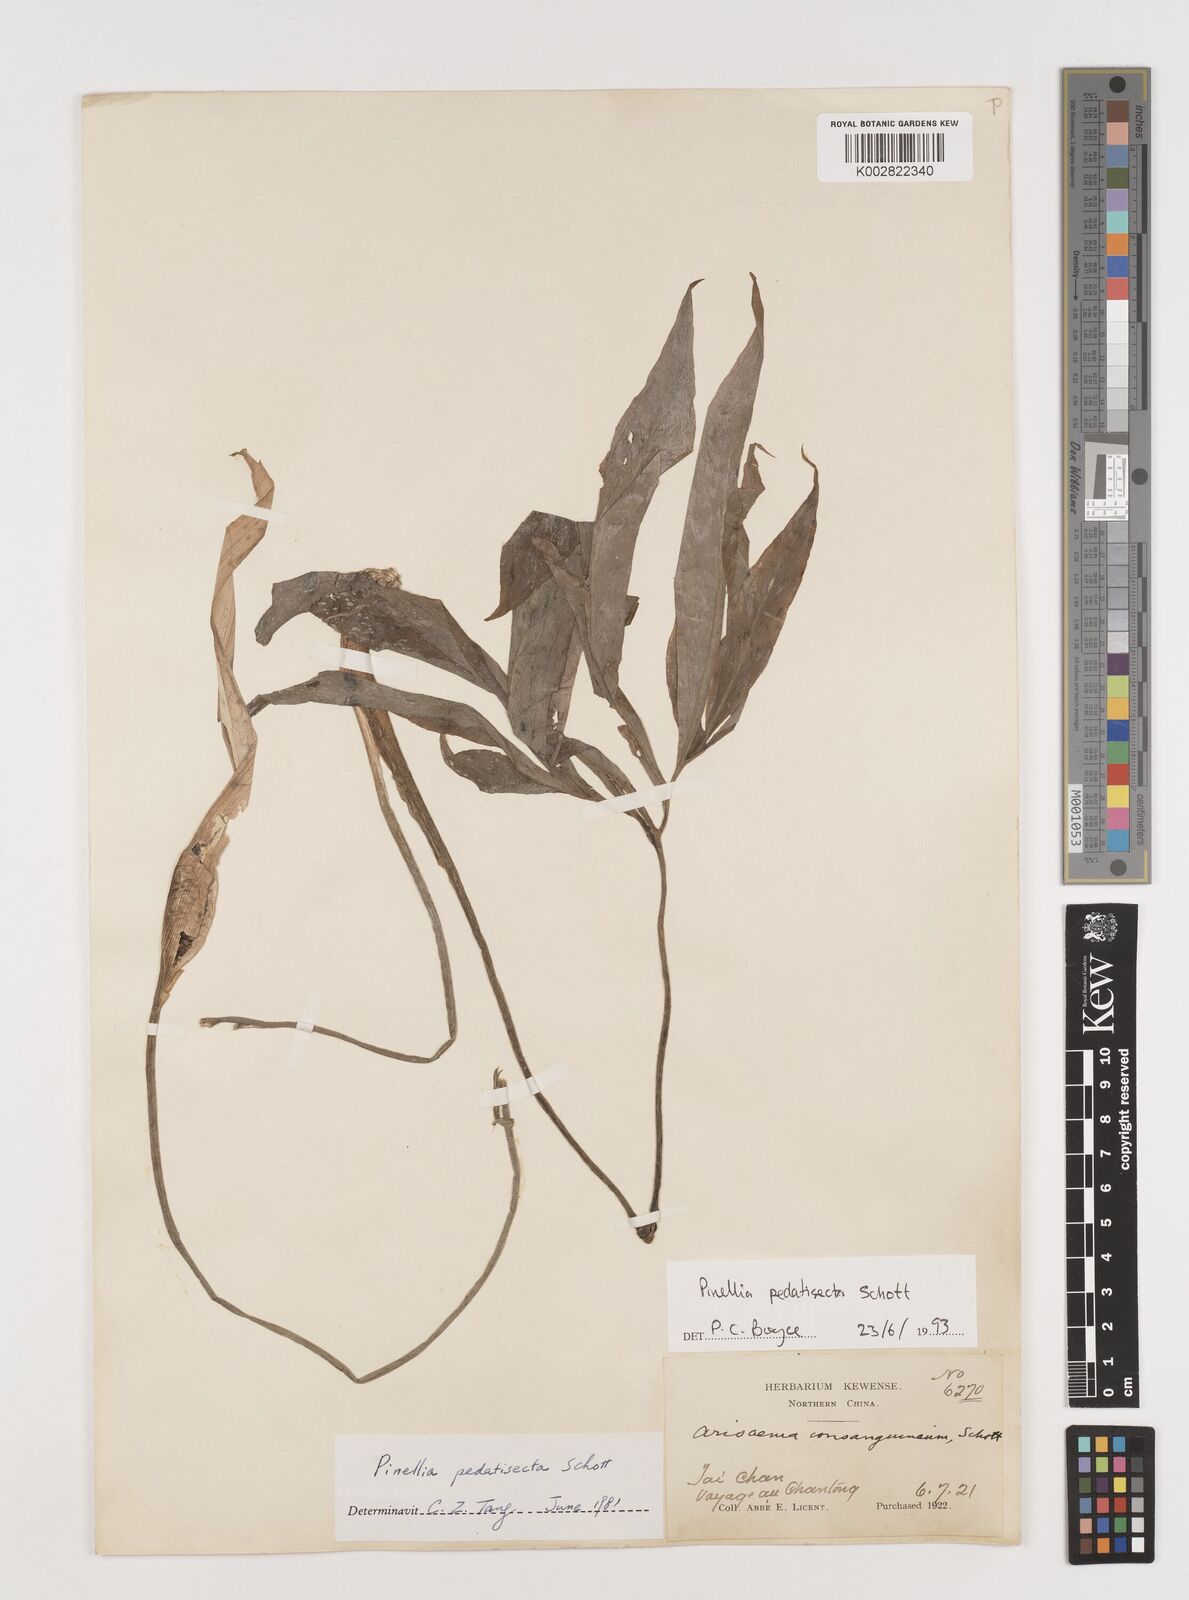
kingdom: Plantae
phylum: Tracheophyta
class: Liliopsida
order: Alismatales
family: Araceae
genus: Pinellia
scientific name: Pinellia pedatisecta
